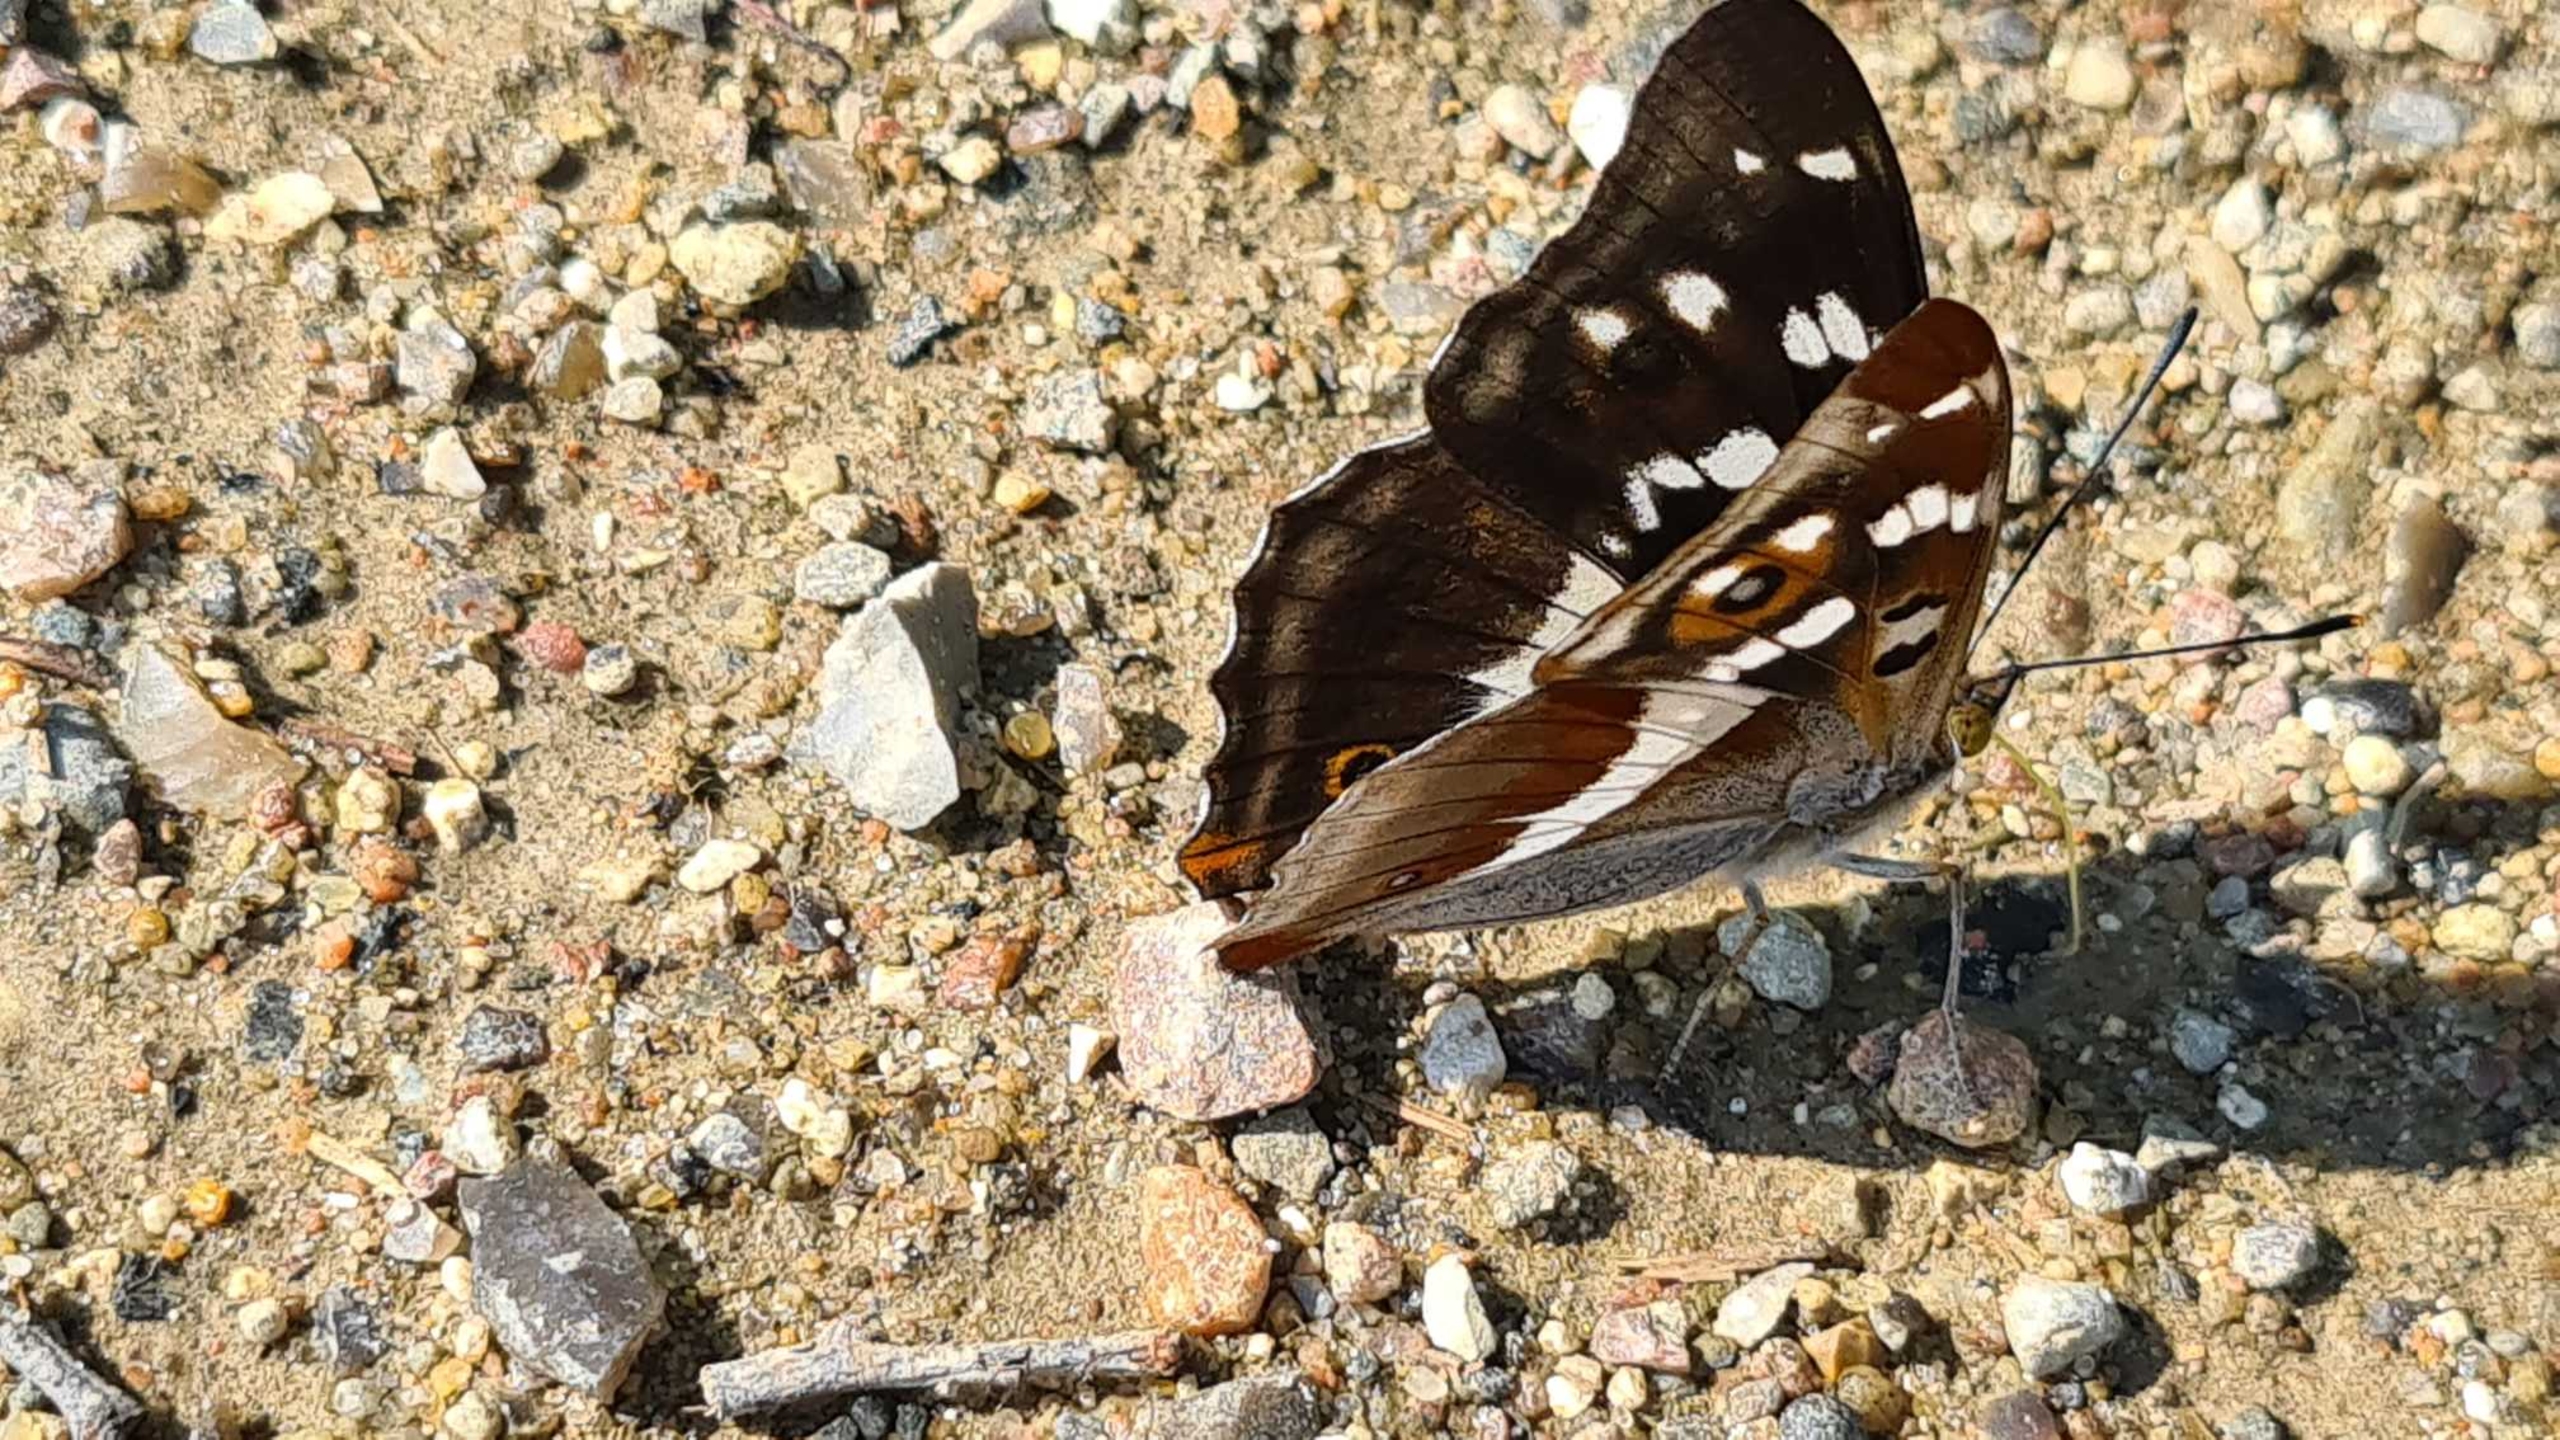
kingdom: Animalia
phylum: Arthropoda
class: Insecta
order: Lepidoptera
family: Nymphalidae
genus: Apatura
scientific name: Apatura iris
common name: Iris
